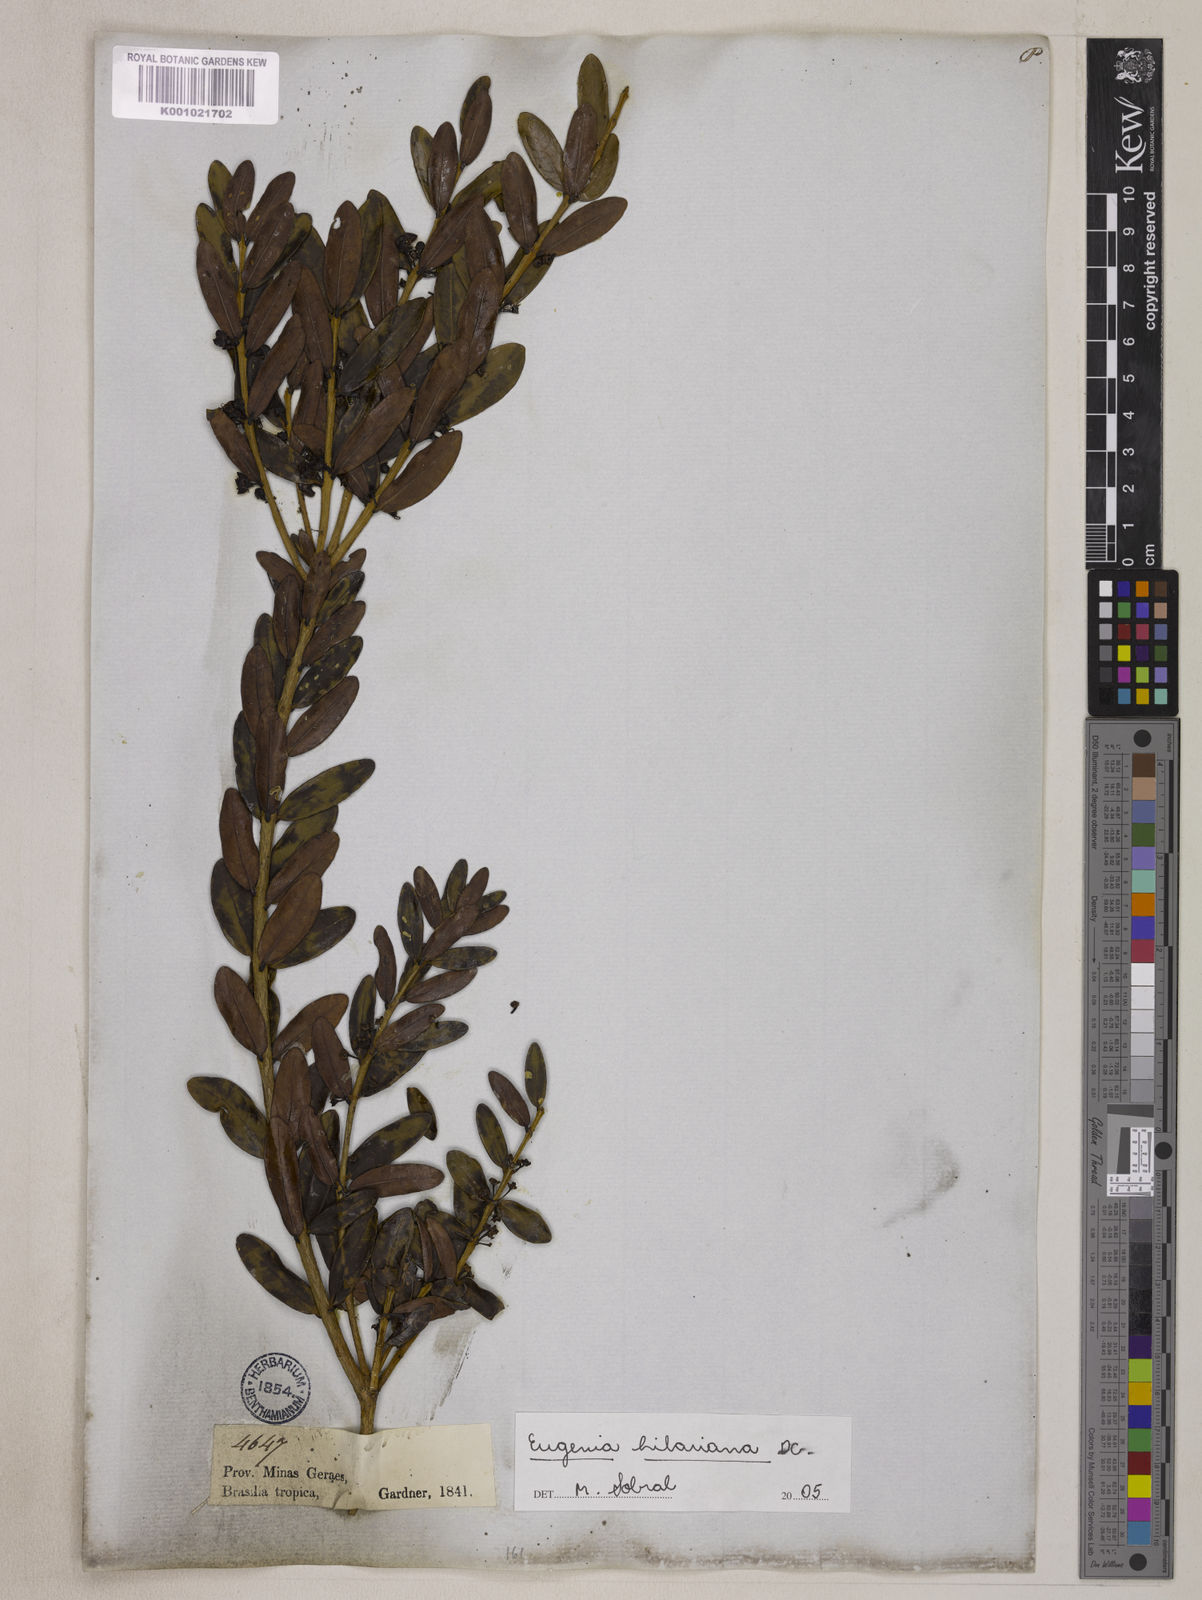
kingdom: Plantae
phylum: Tracheophyta
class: Magnoliopsida
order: Myrtales
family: Myrtaceae
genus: Eugenia
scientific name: Eugenia hilariana
